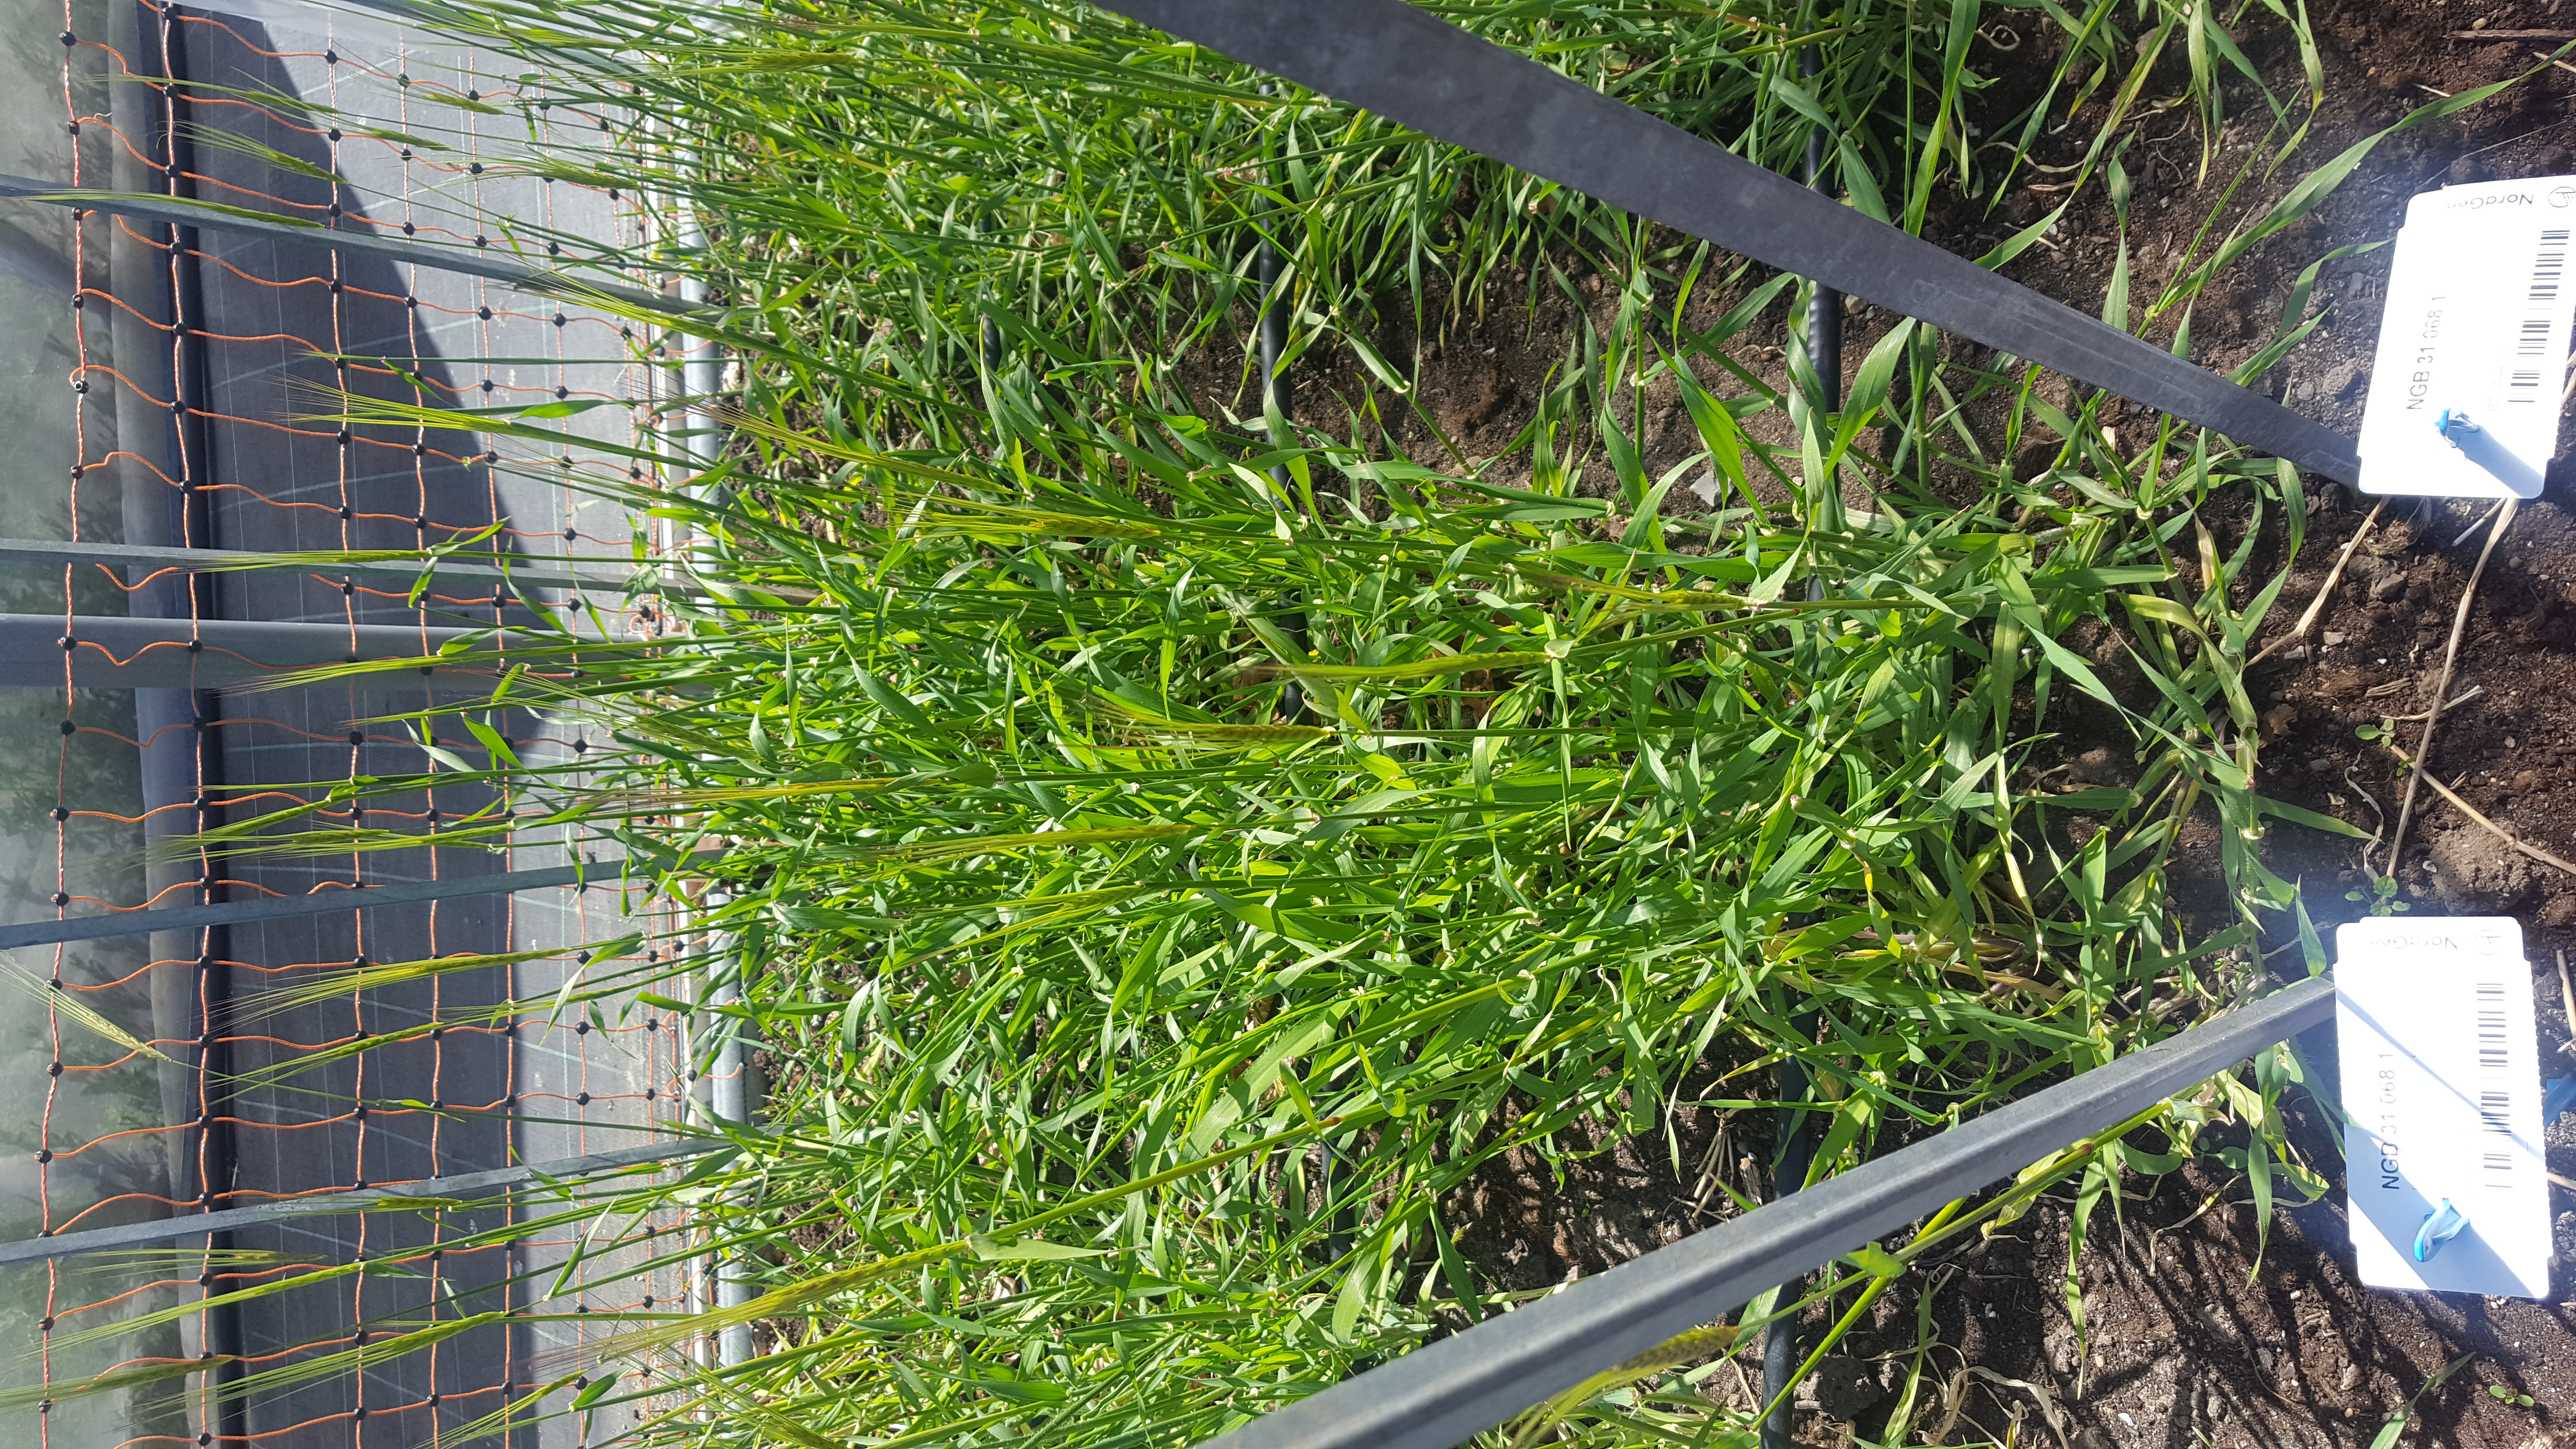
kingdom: Plantae
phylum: Tracheophyta
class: Liliopsida
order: Poales
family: Poaceae
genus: Hordeum
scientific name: Hordeum spontaneum
